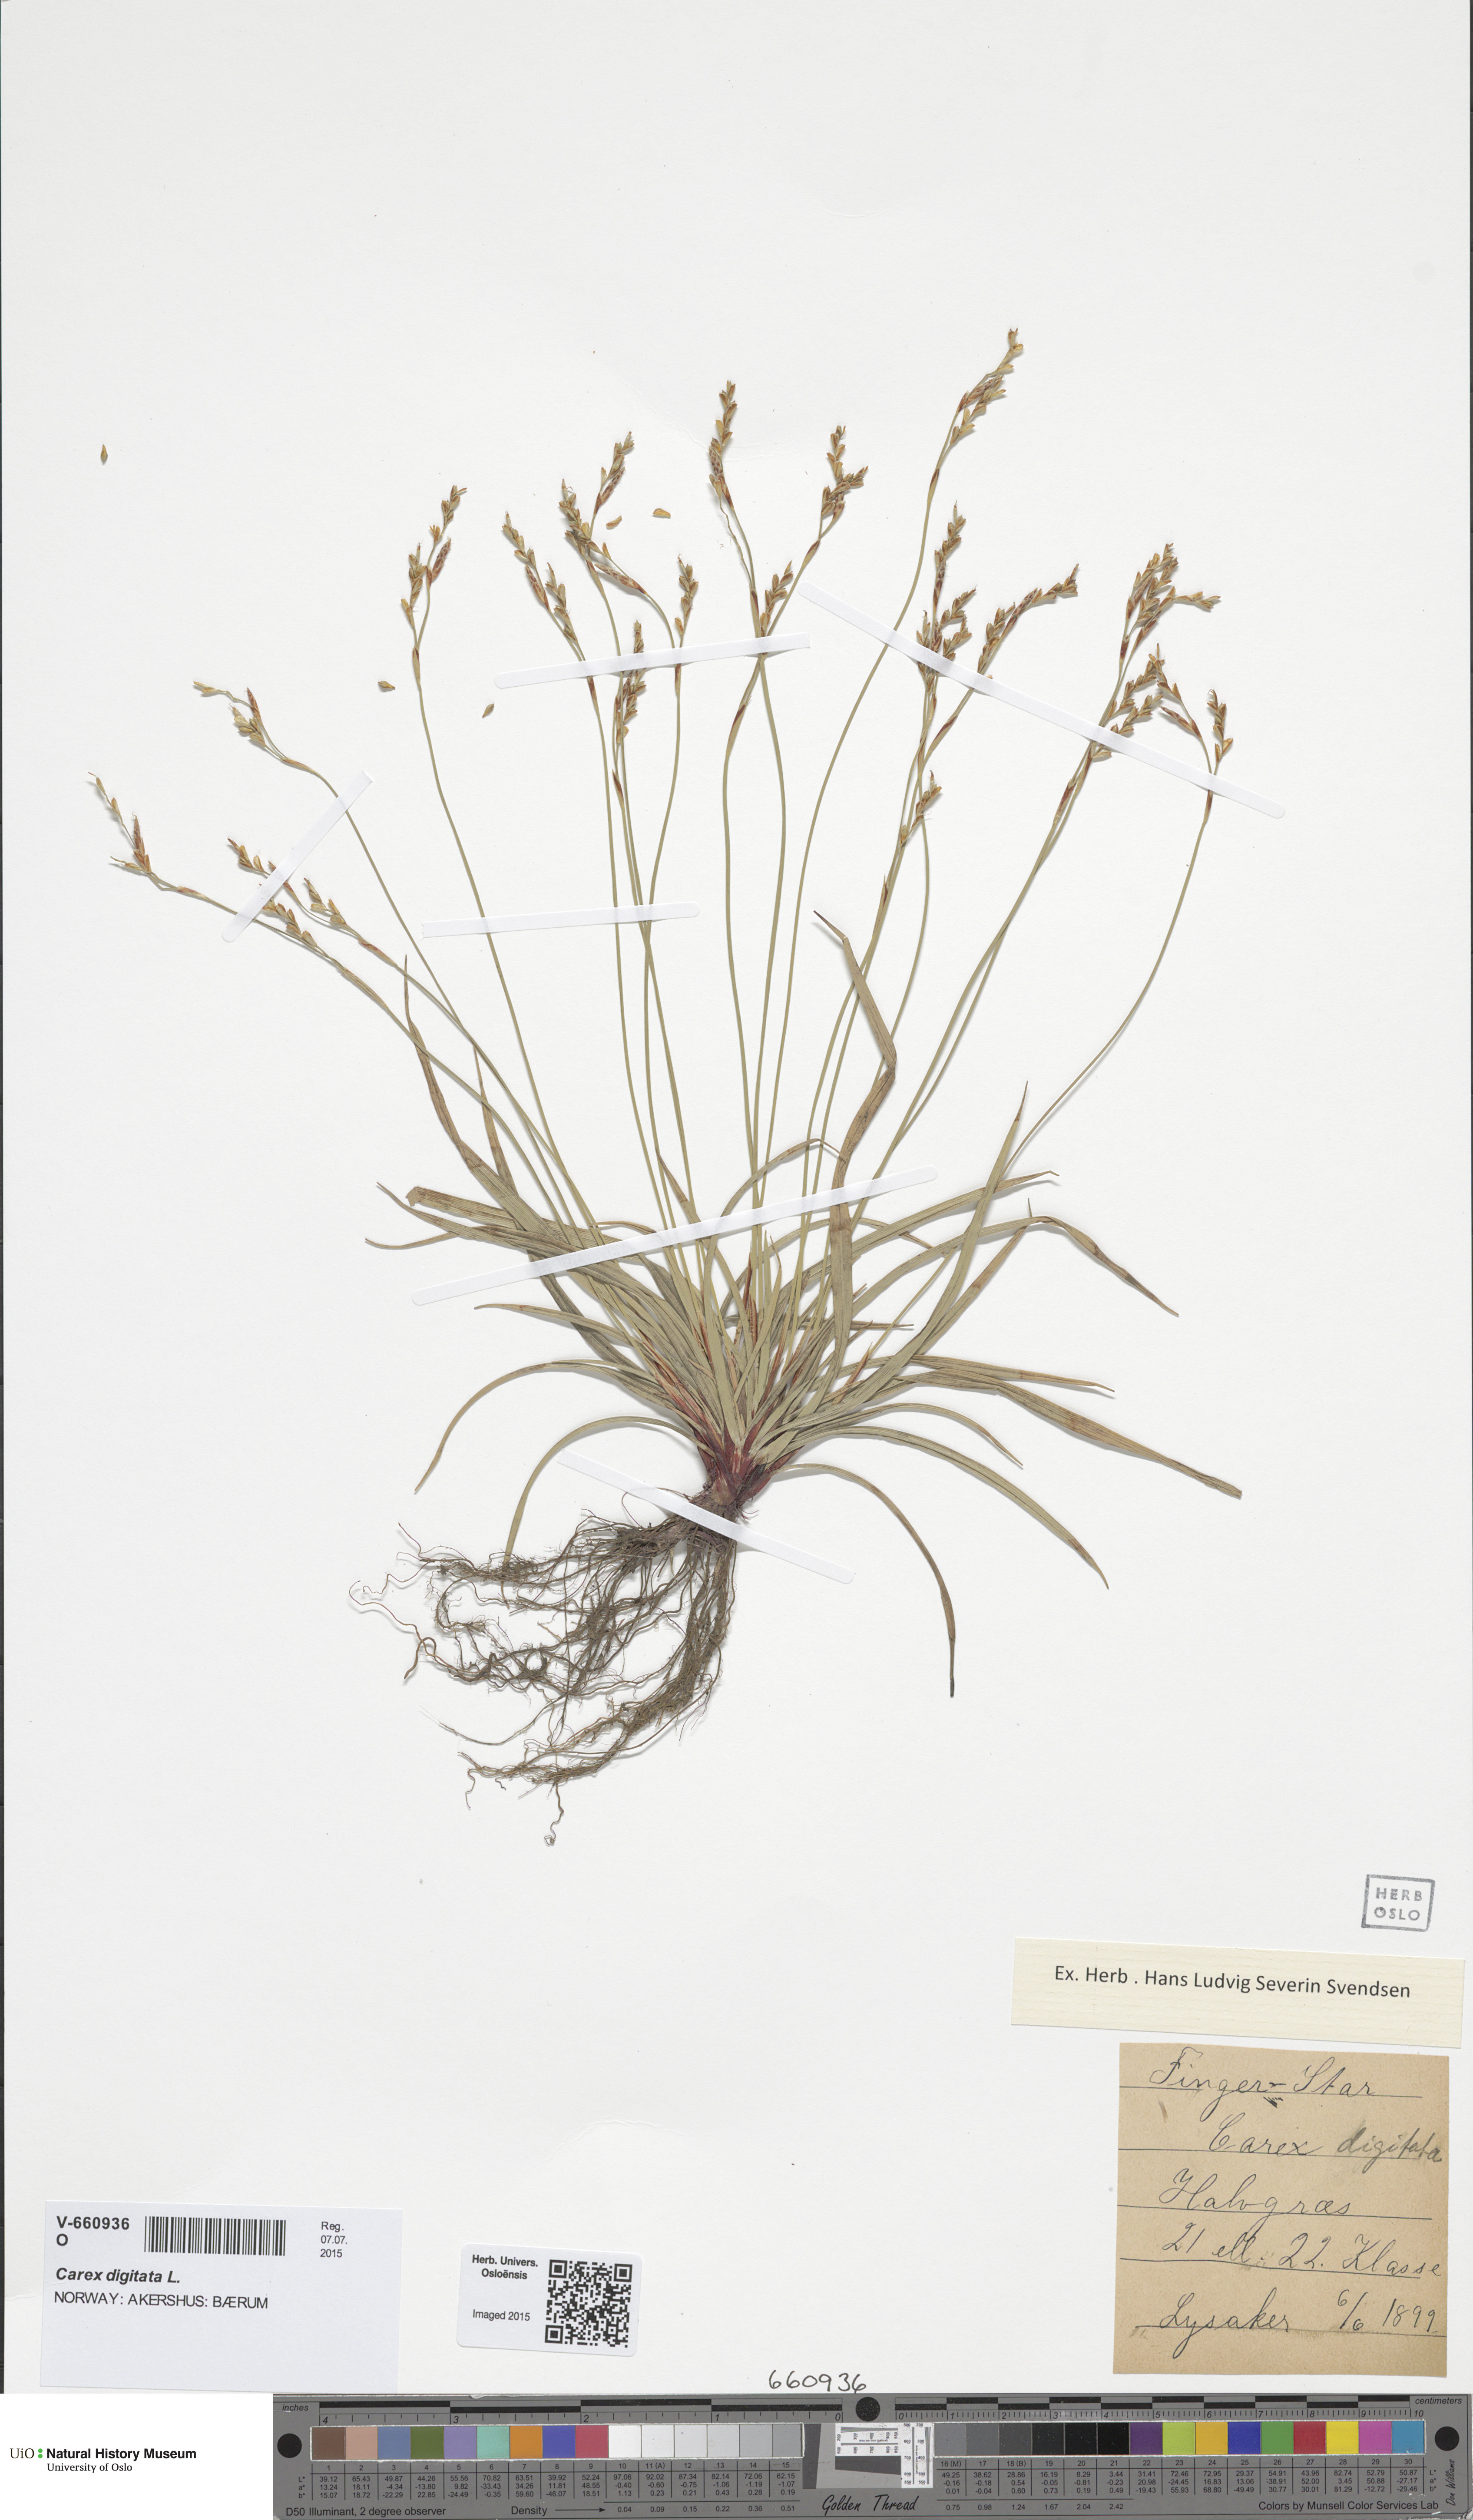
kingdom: Plantae
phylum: Tracheophyta
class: Liliopsida
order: Poales
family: Cyperaceae
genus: Carex
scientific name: Carex digitata
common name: Fingered sedge
